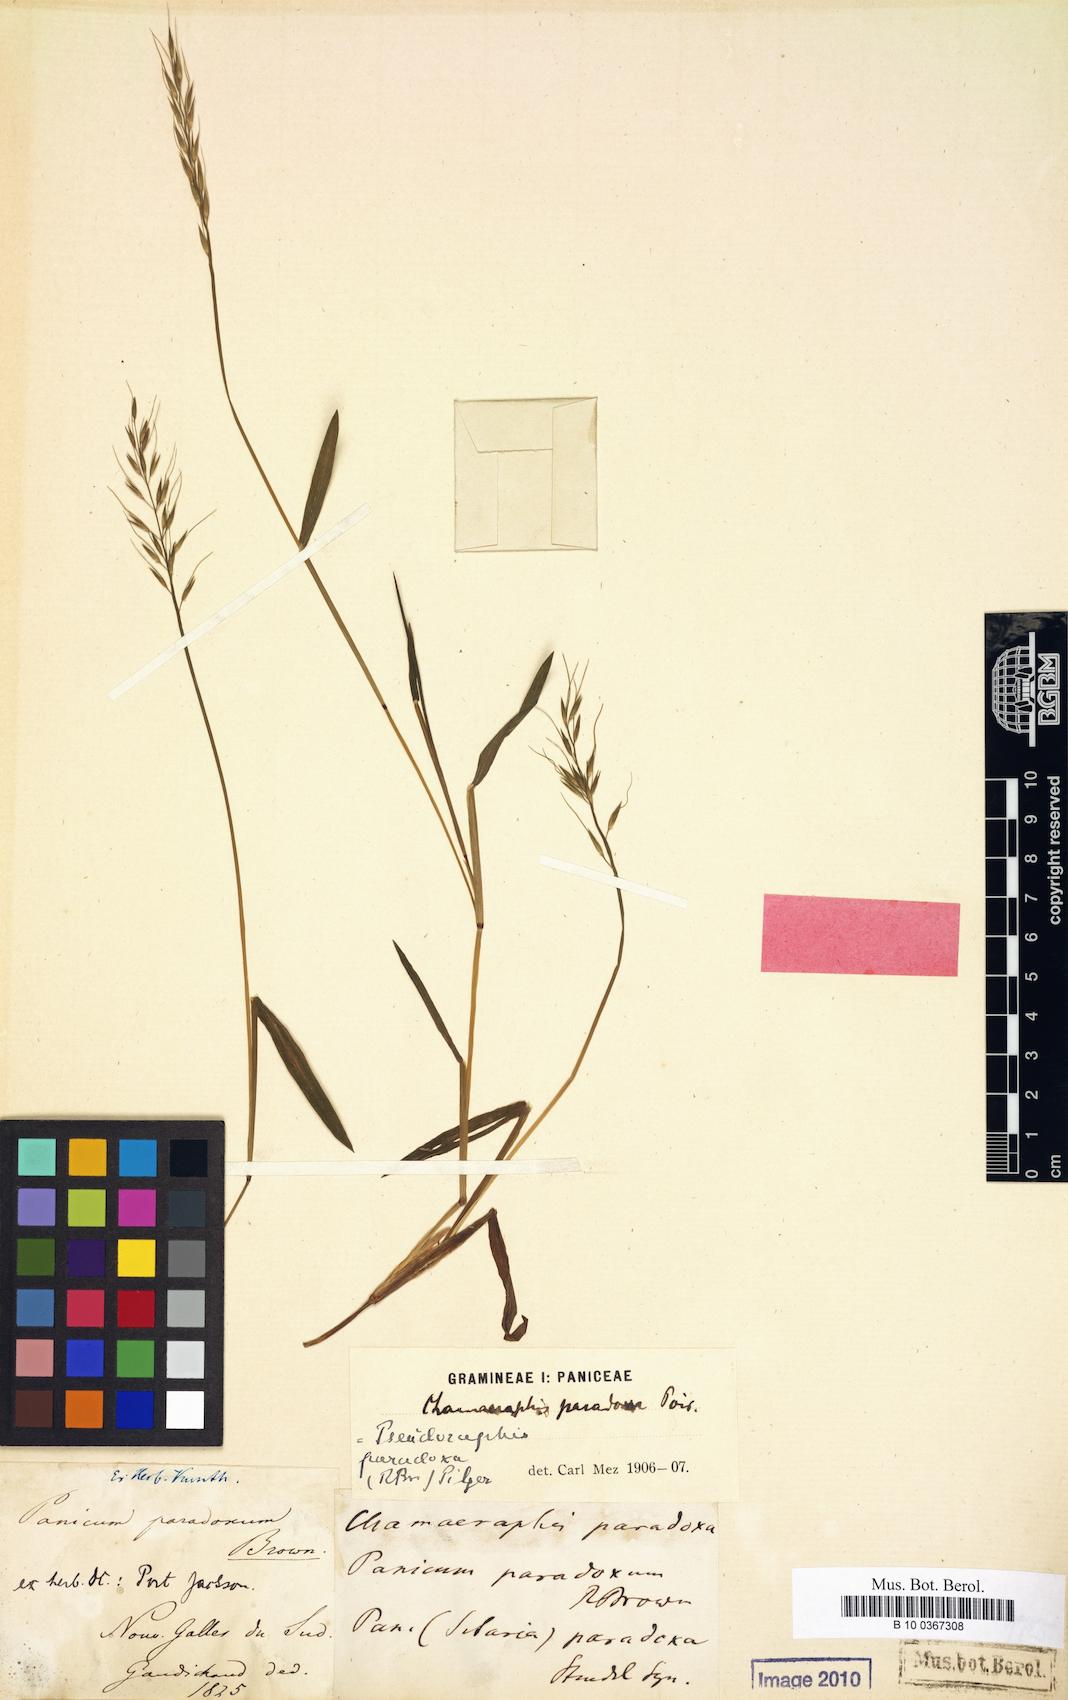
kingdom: Plantae
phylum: Tracheophyta
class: Liliopsida
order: Poales
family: Poaceae
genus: Pseudoraphis
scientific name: Pseudoraphis paradoxa
